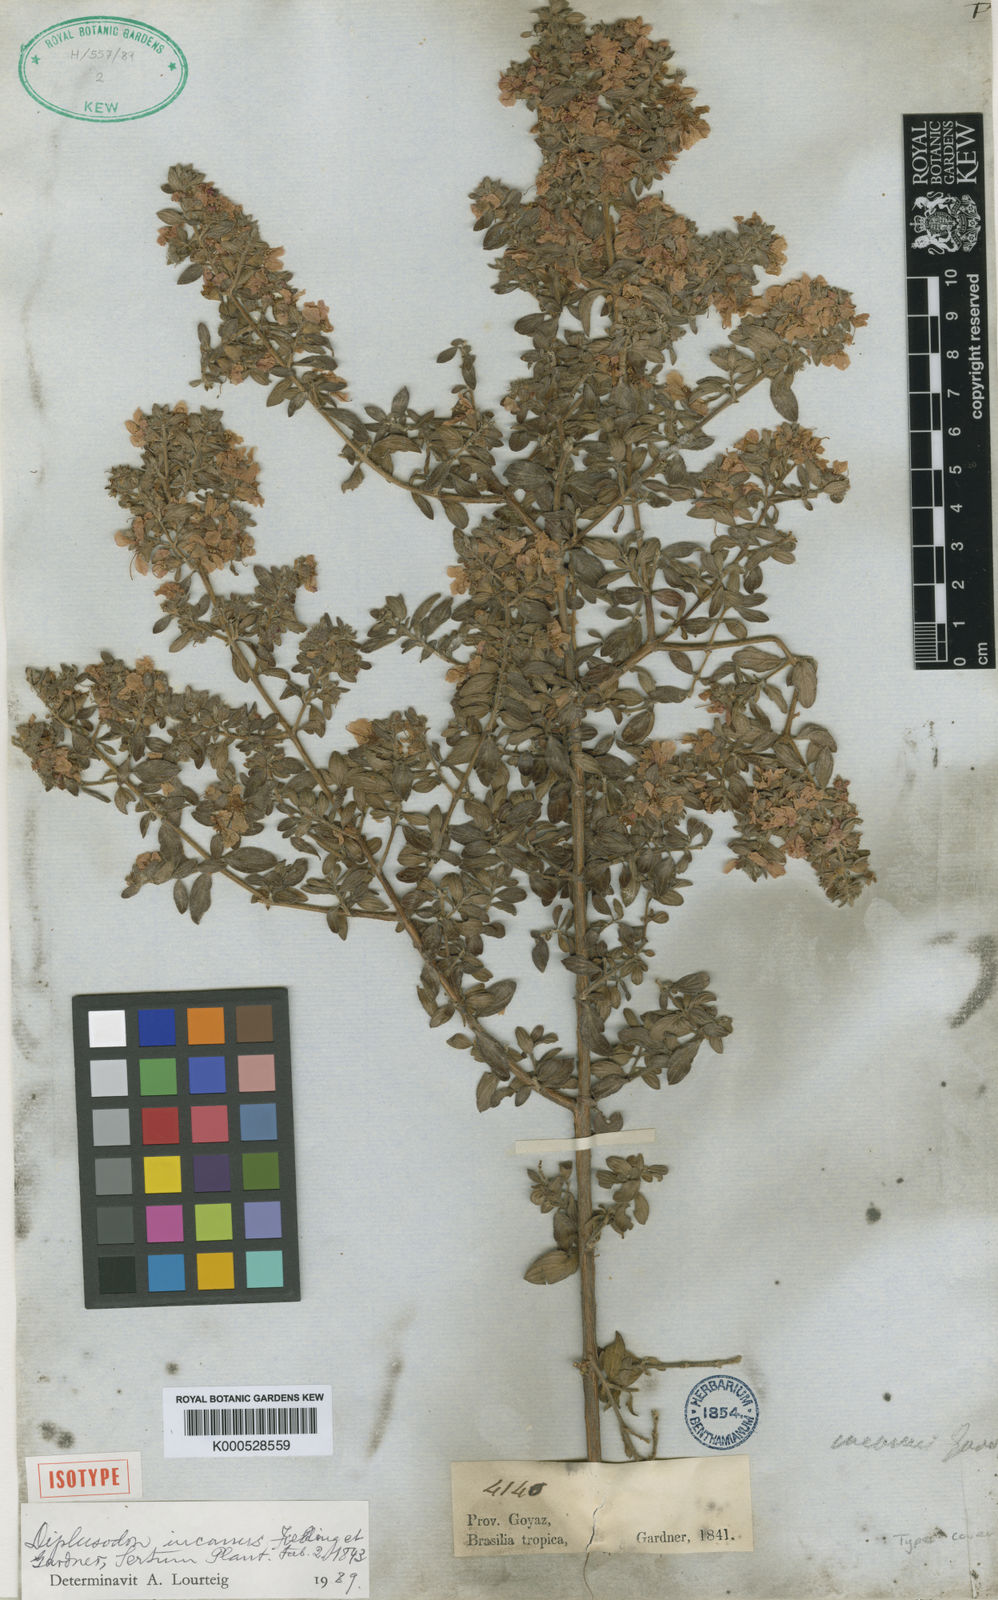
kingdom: Plantae
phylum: Tracheophyta
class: Magnoliopsida
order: Myrtales
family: Lythraceae
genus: Diplusodon
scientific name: Diplusodon incanus
